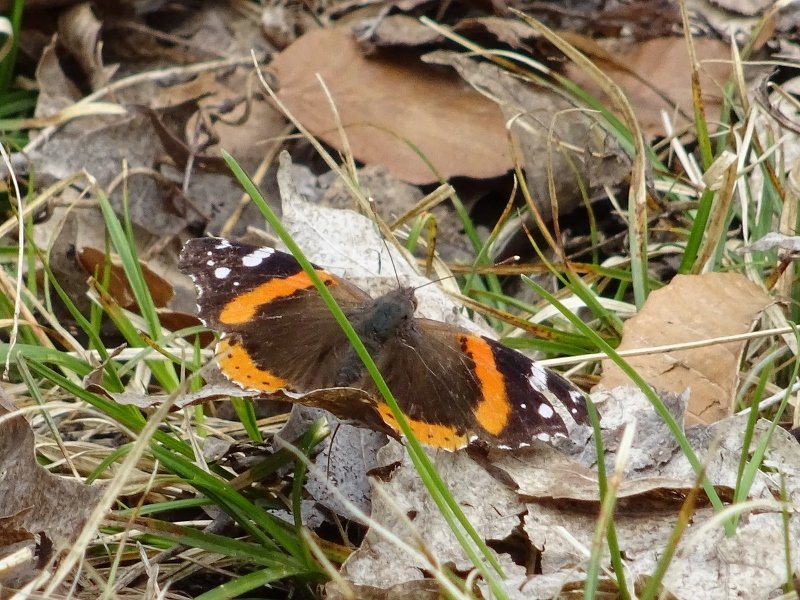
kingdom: Animalia
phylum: Arthropoda
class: Insecta
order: Lepidoptera
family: Nymphalidae
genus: Vanessa
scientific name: Vanessa atalanta
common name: Red Admiral
